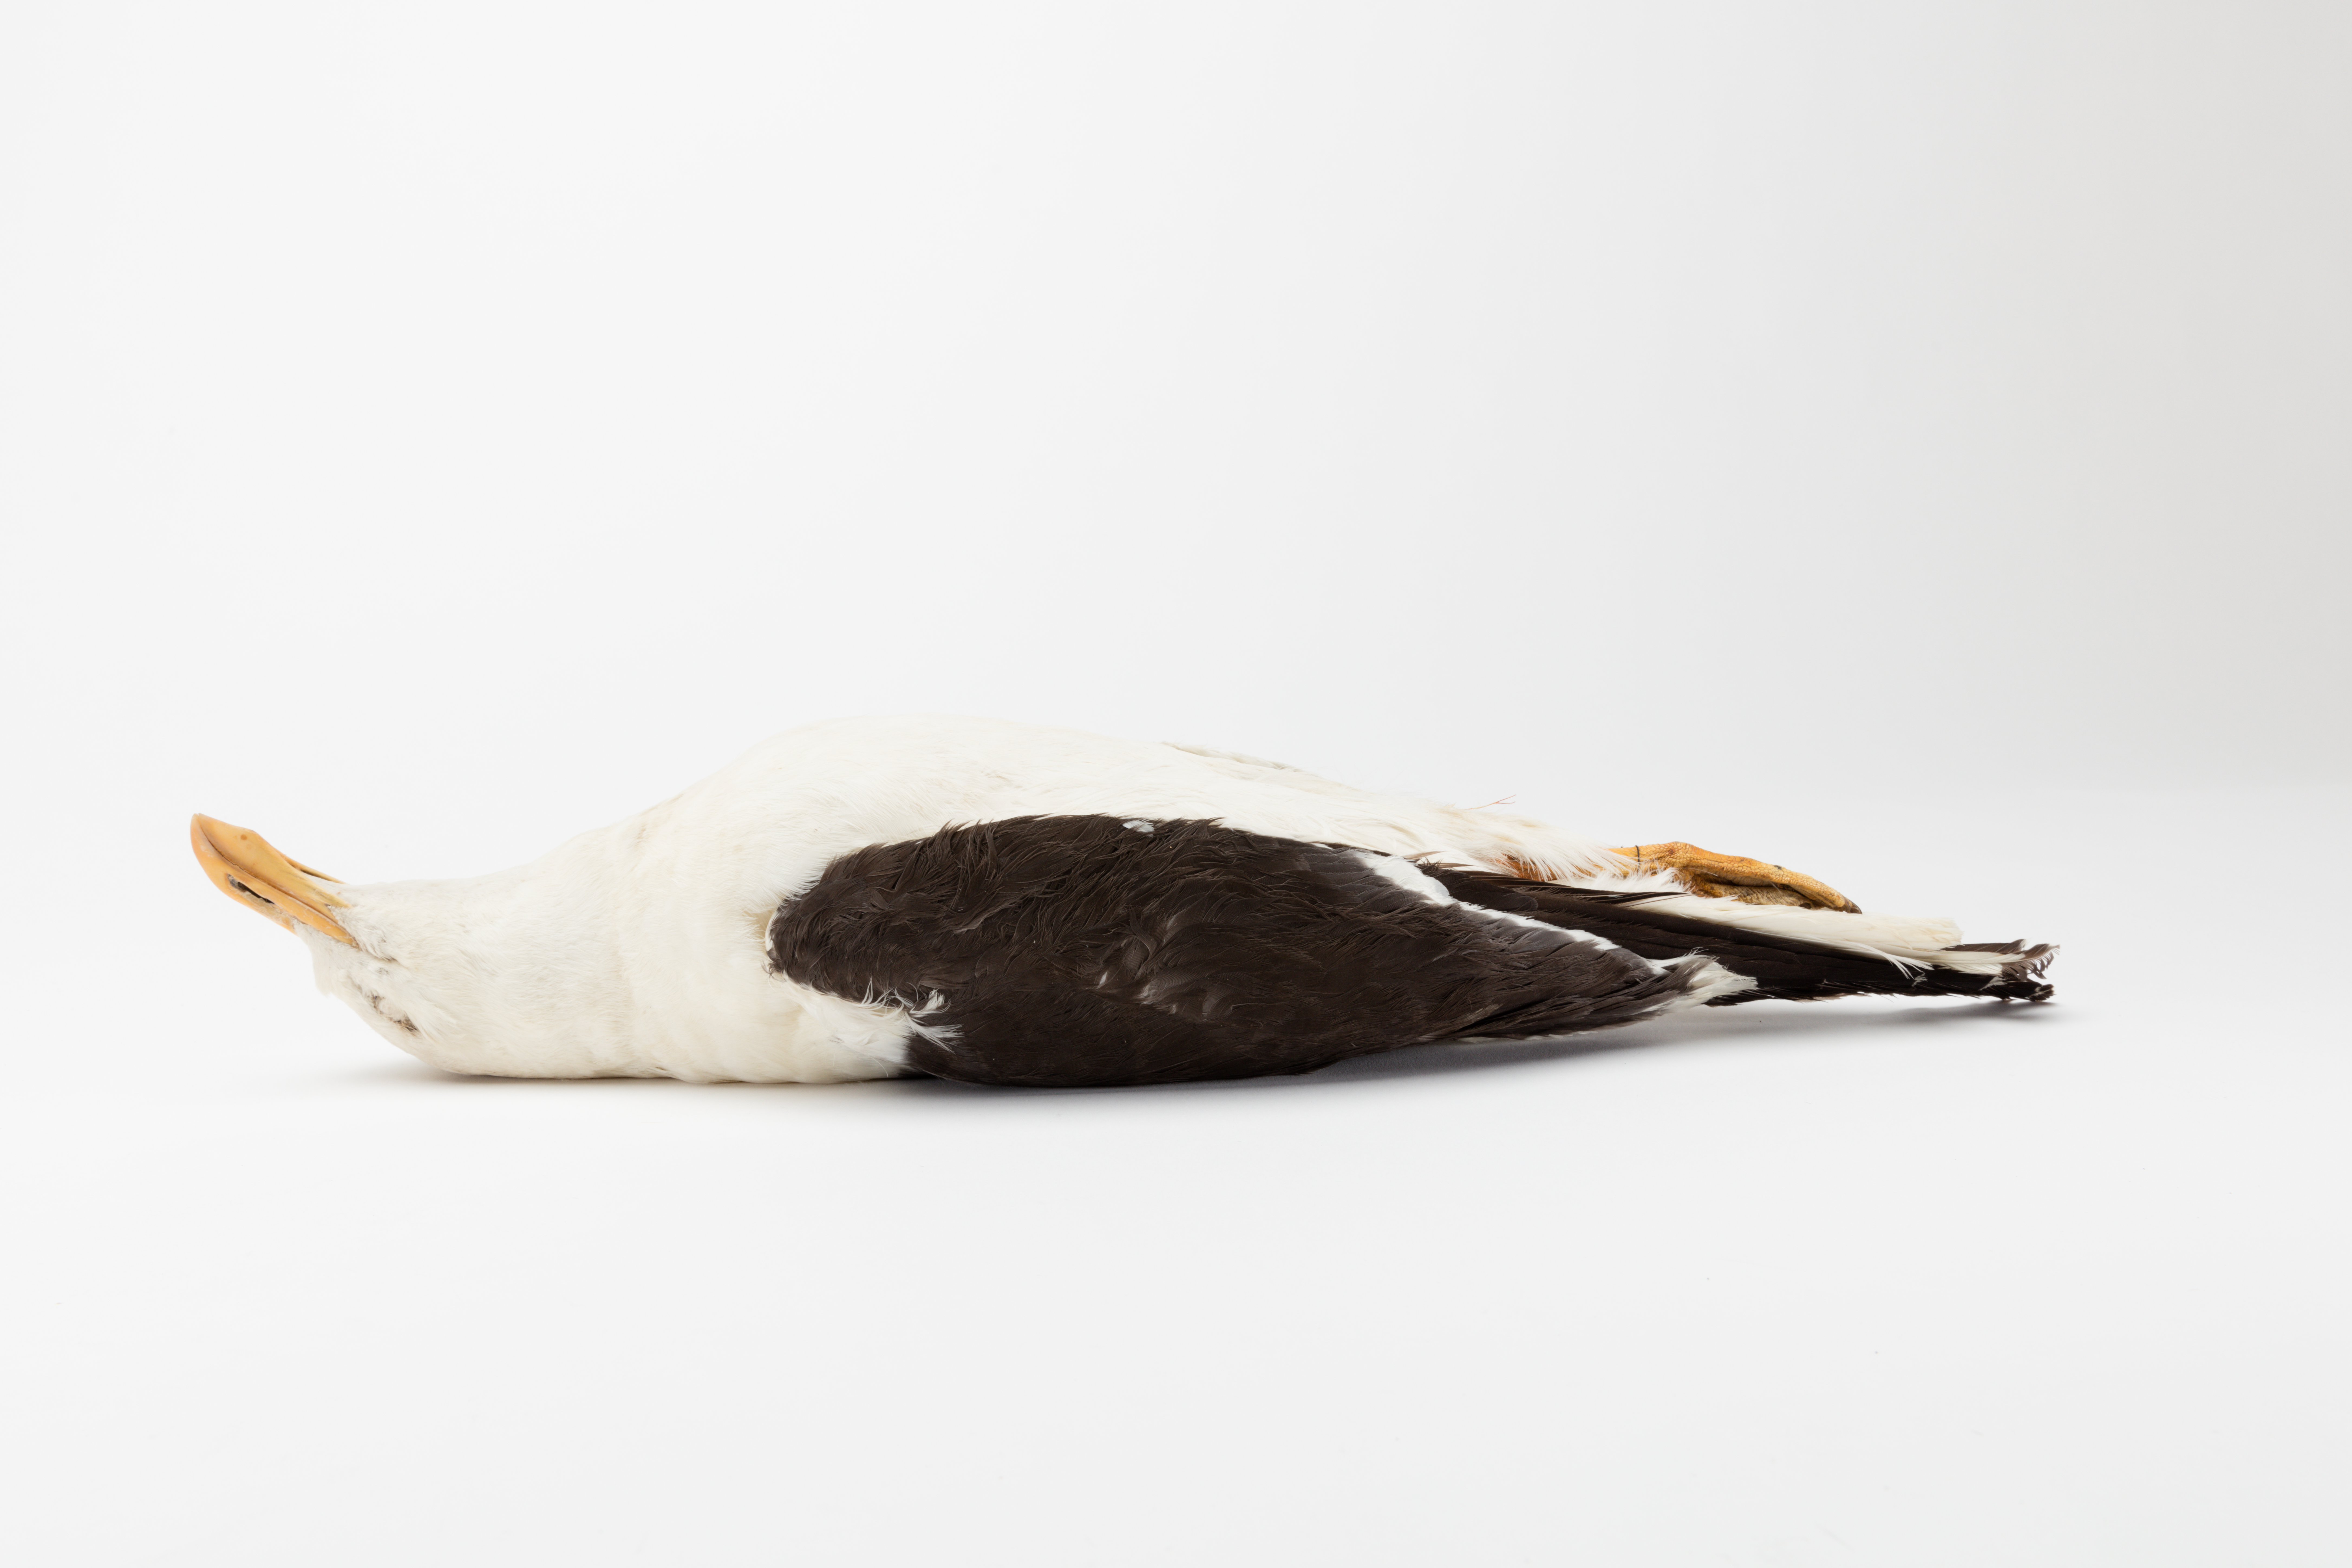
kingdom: Animalia
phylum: Chordata
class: Aves
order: Charadriiformes
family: Laridae
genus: Larus
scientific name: Larus dominicanus
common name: Kelp gull
